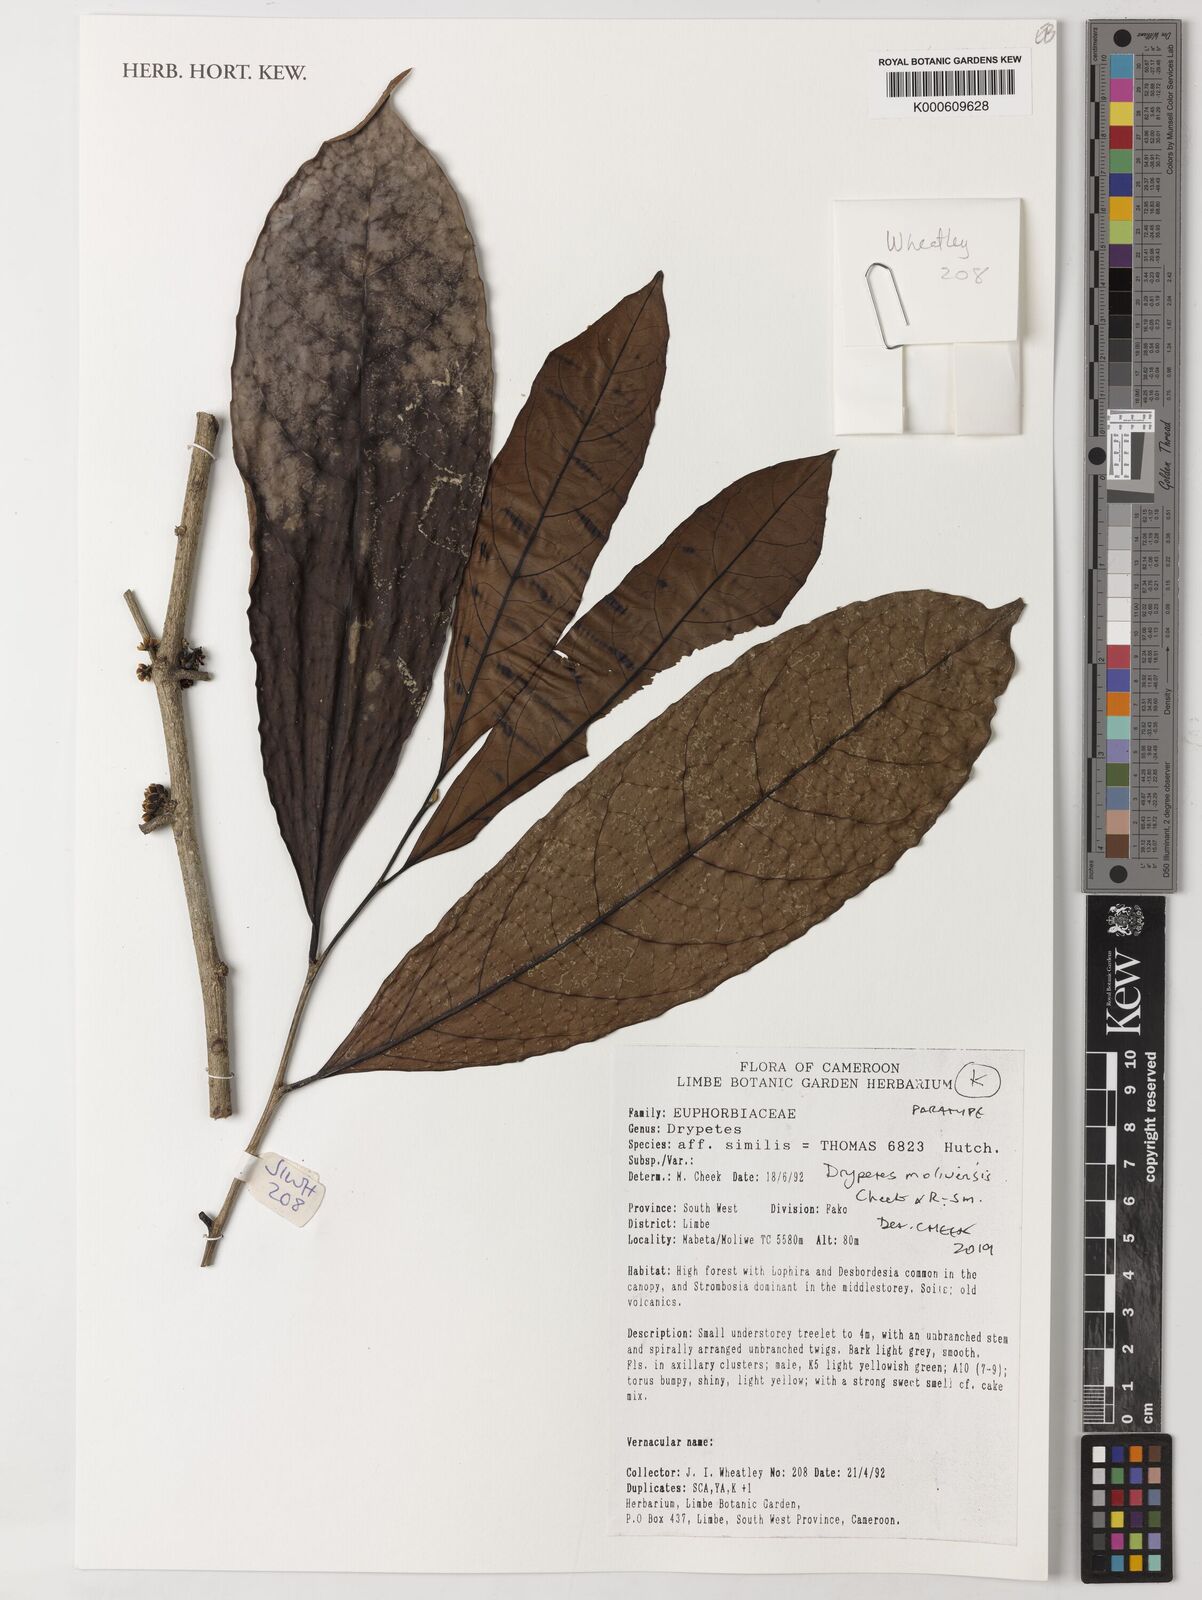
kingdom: Plantae
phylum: Tracheophyta
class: Magnoliopsida
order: Malpighiales
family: Putranjivaceae
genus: Drypetes
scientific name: Drypetes similis
